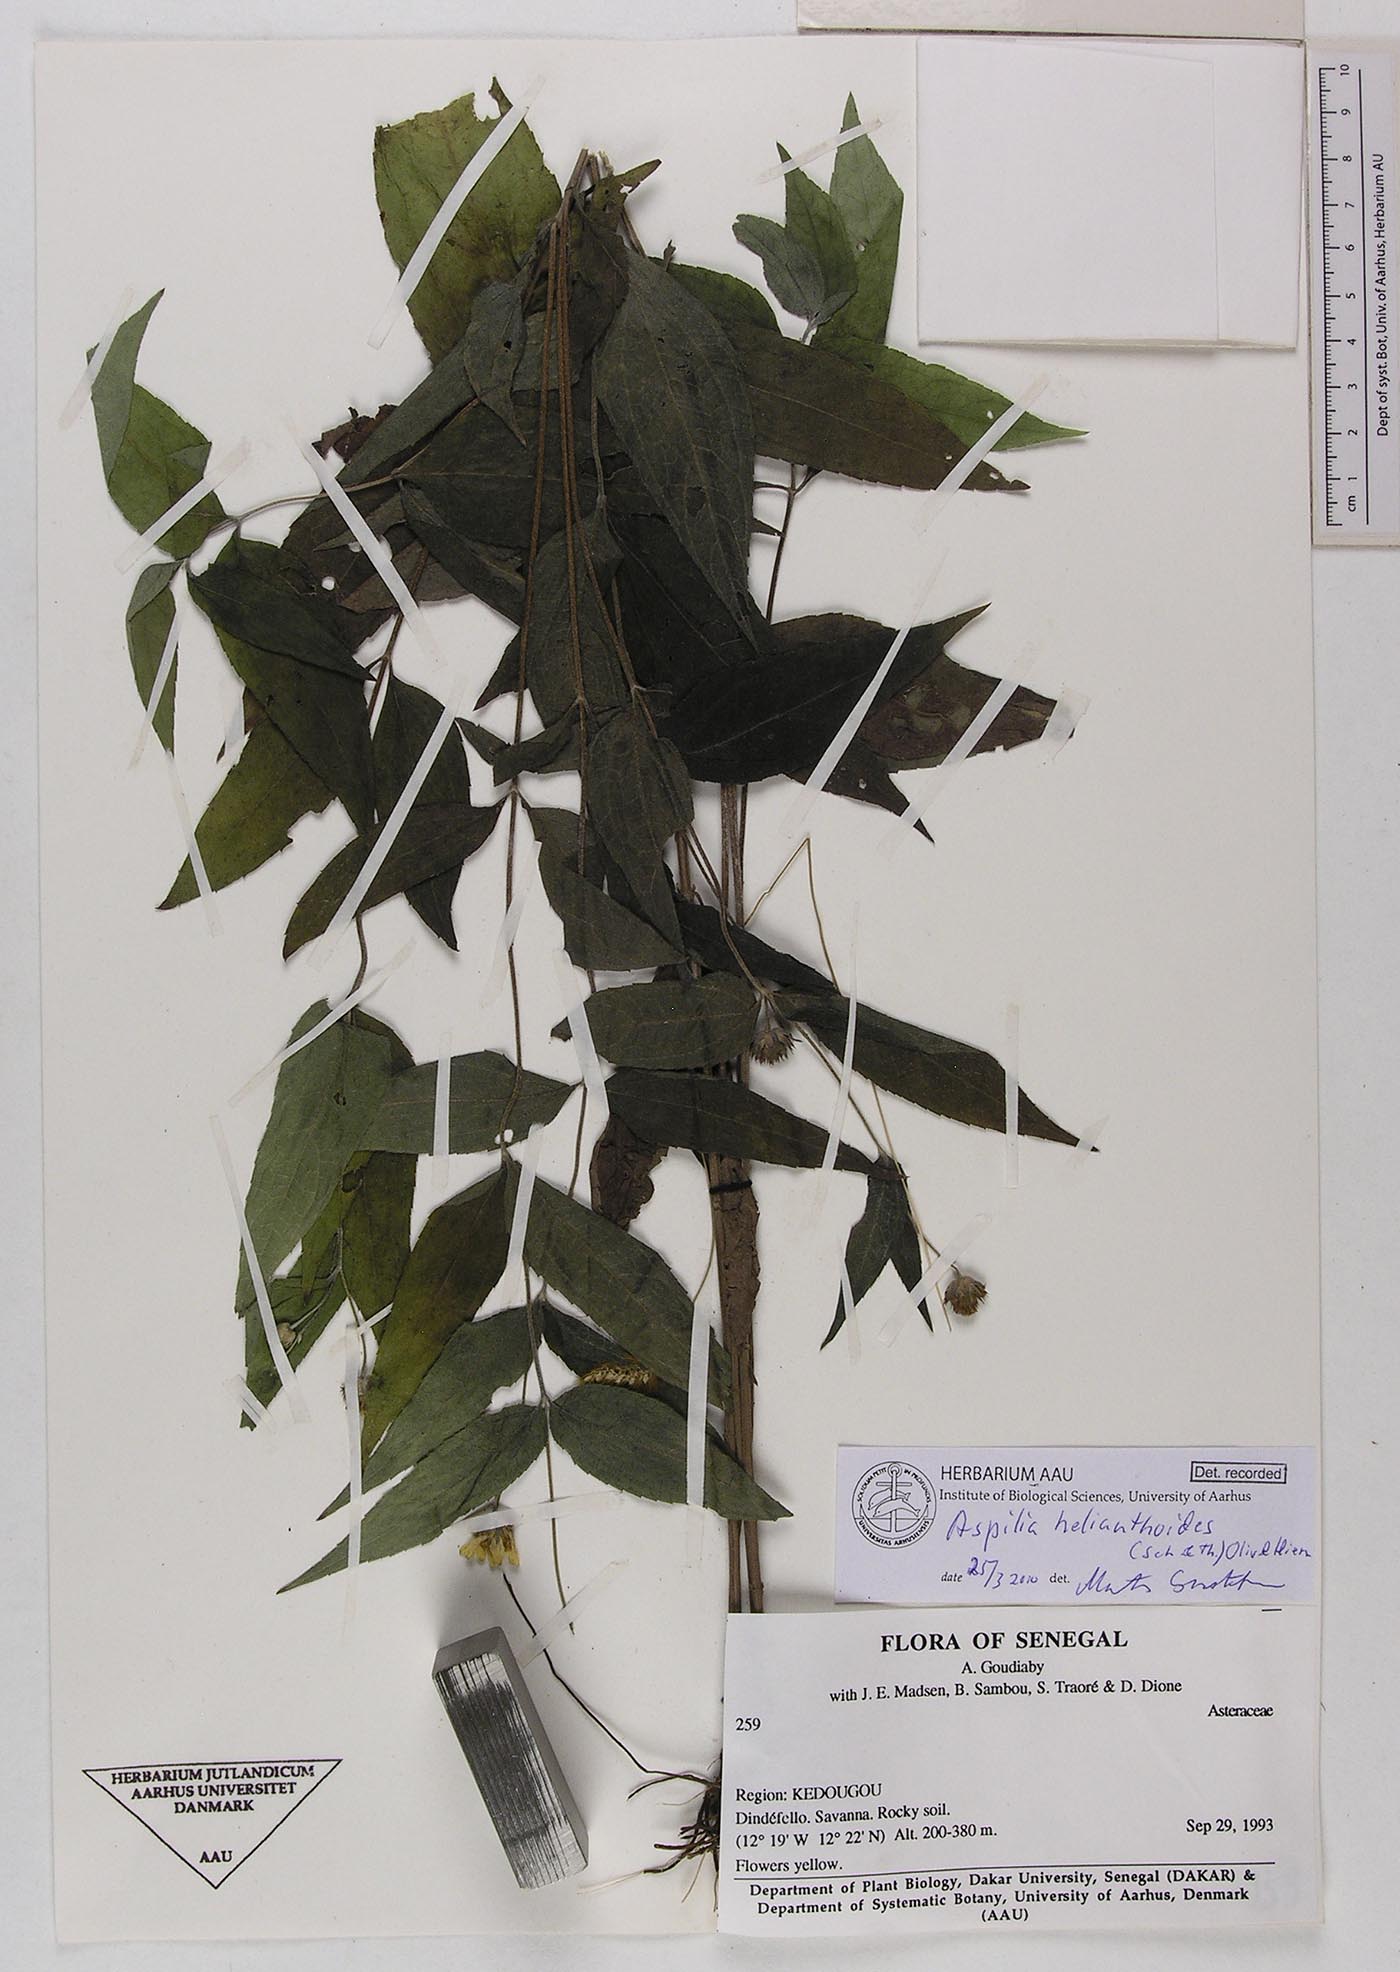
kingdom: Plantae
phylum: Tracheophyta
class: Magnoliopsida
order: Asterales
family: Asteraceae
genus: Aspilia
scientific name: Aspilia helianthoides
